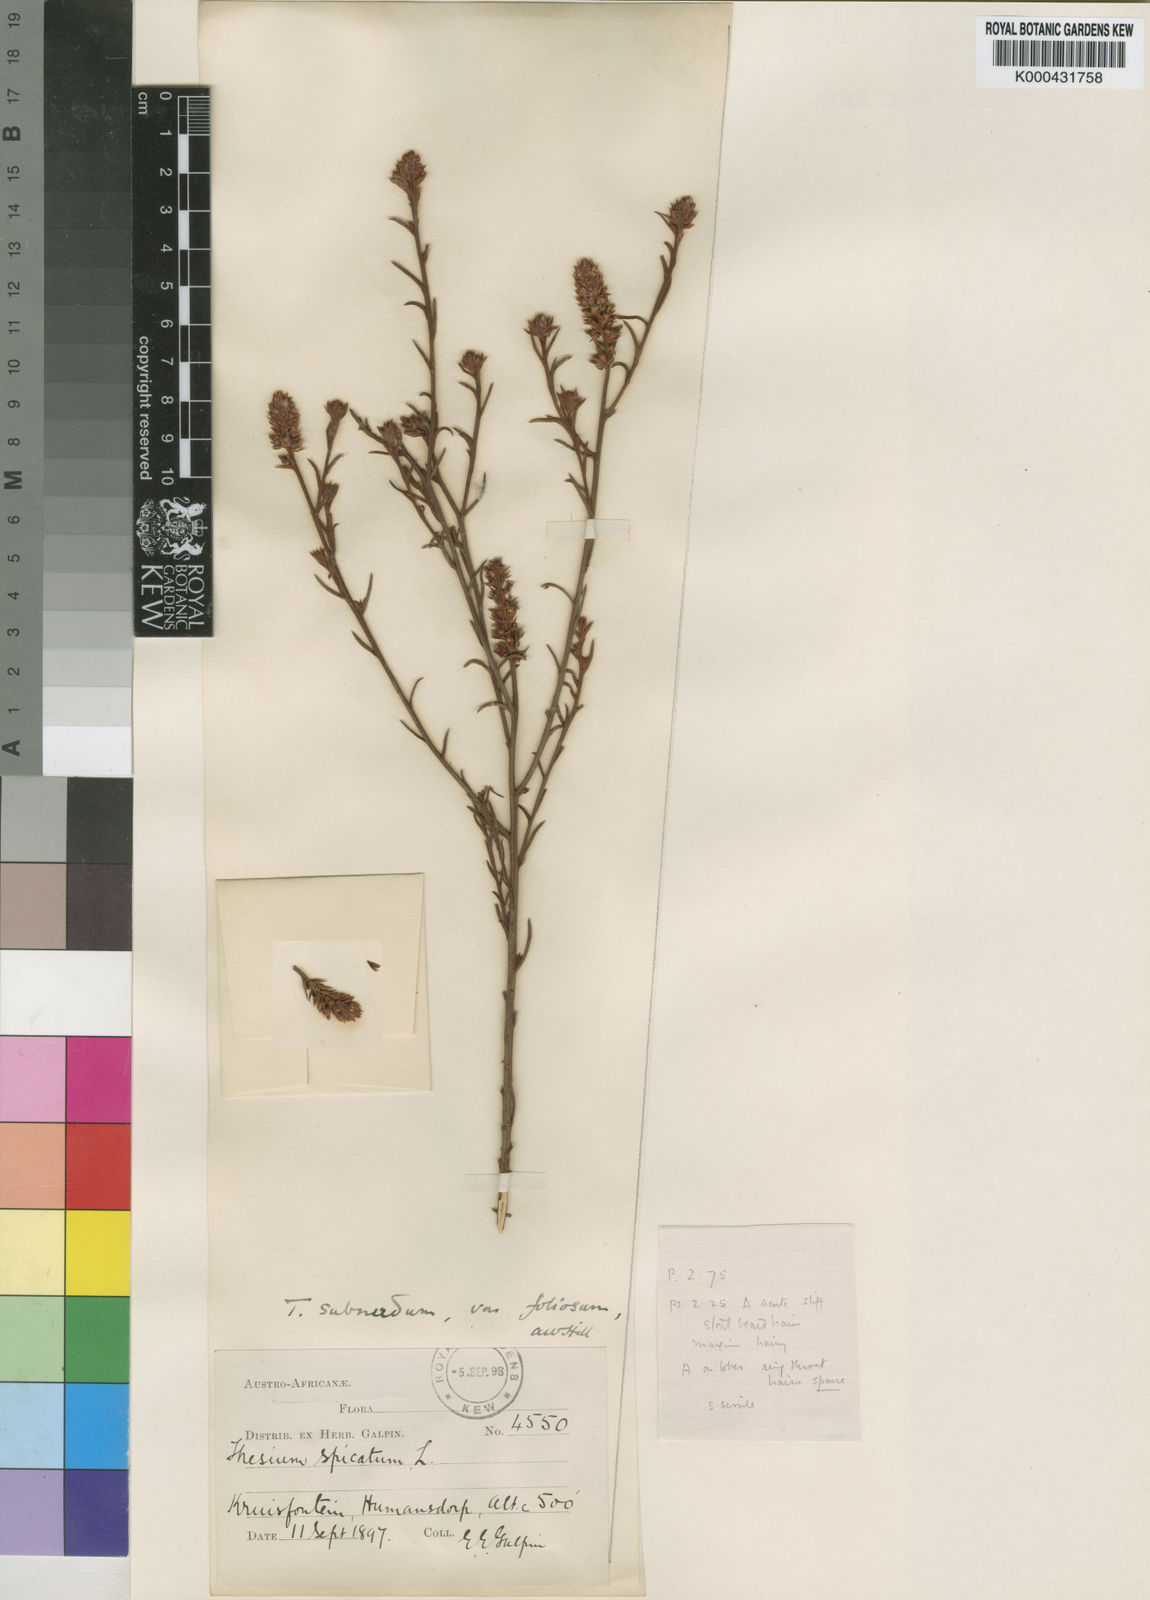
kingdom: Plantae
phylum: Tracheophyta
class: Magnoliopsida
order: Santalales
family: Thesiaceae
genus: Thesium
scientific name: Thesium subnudum
